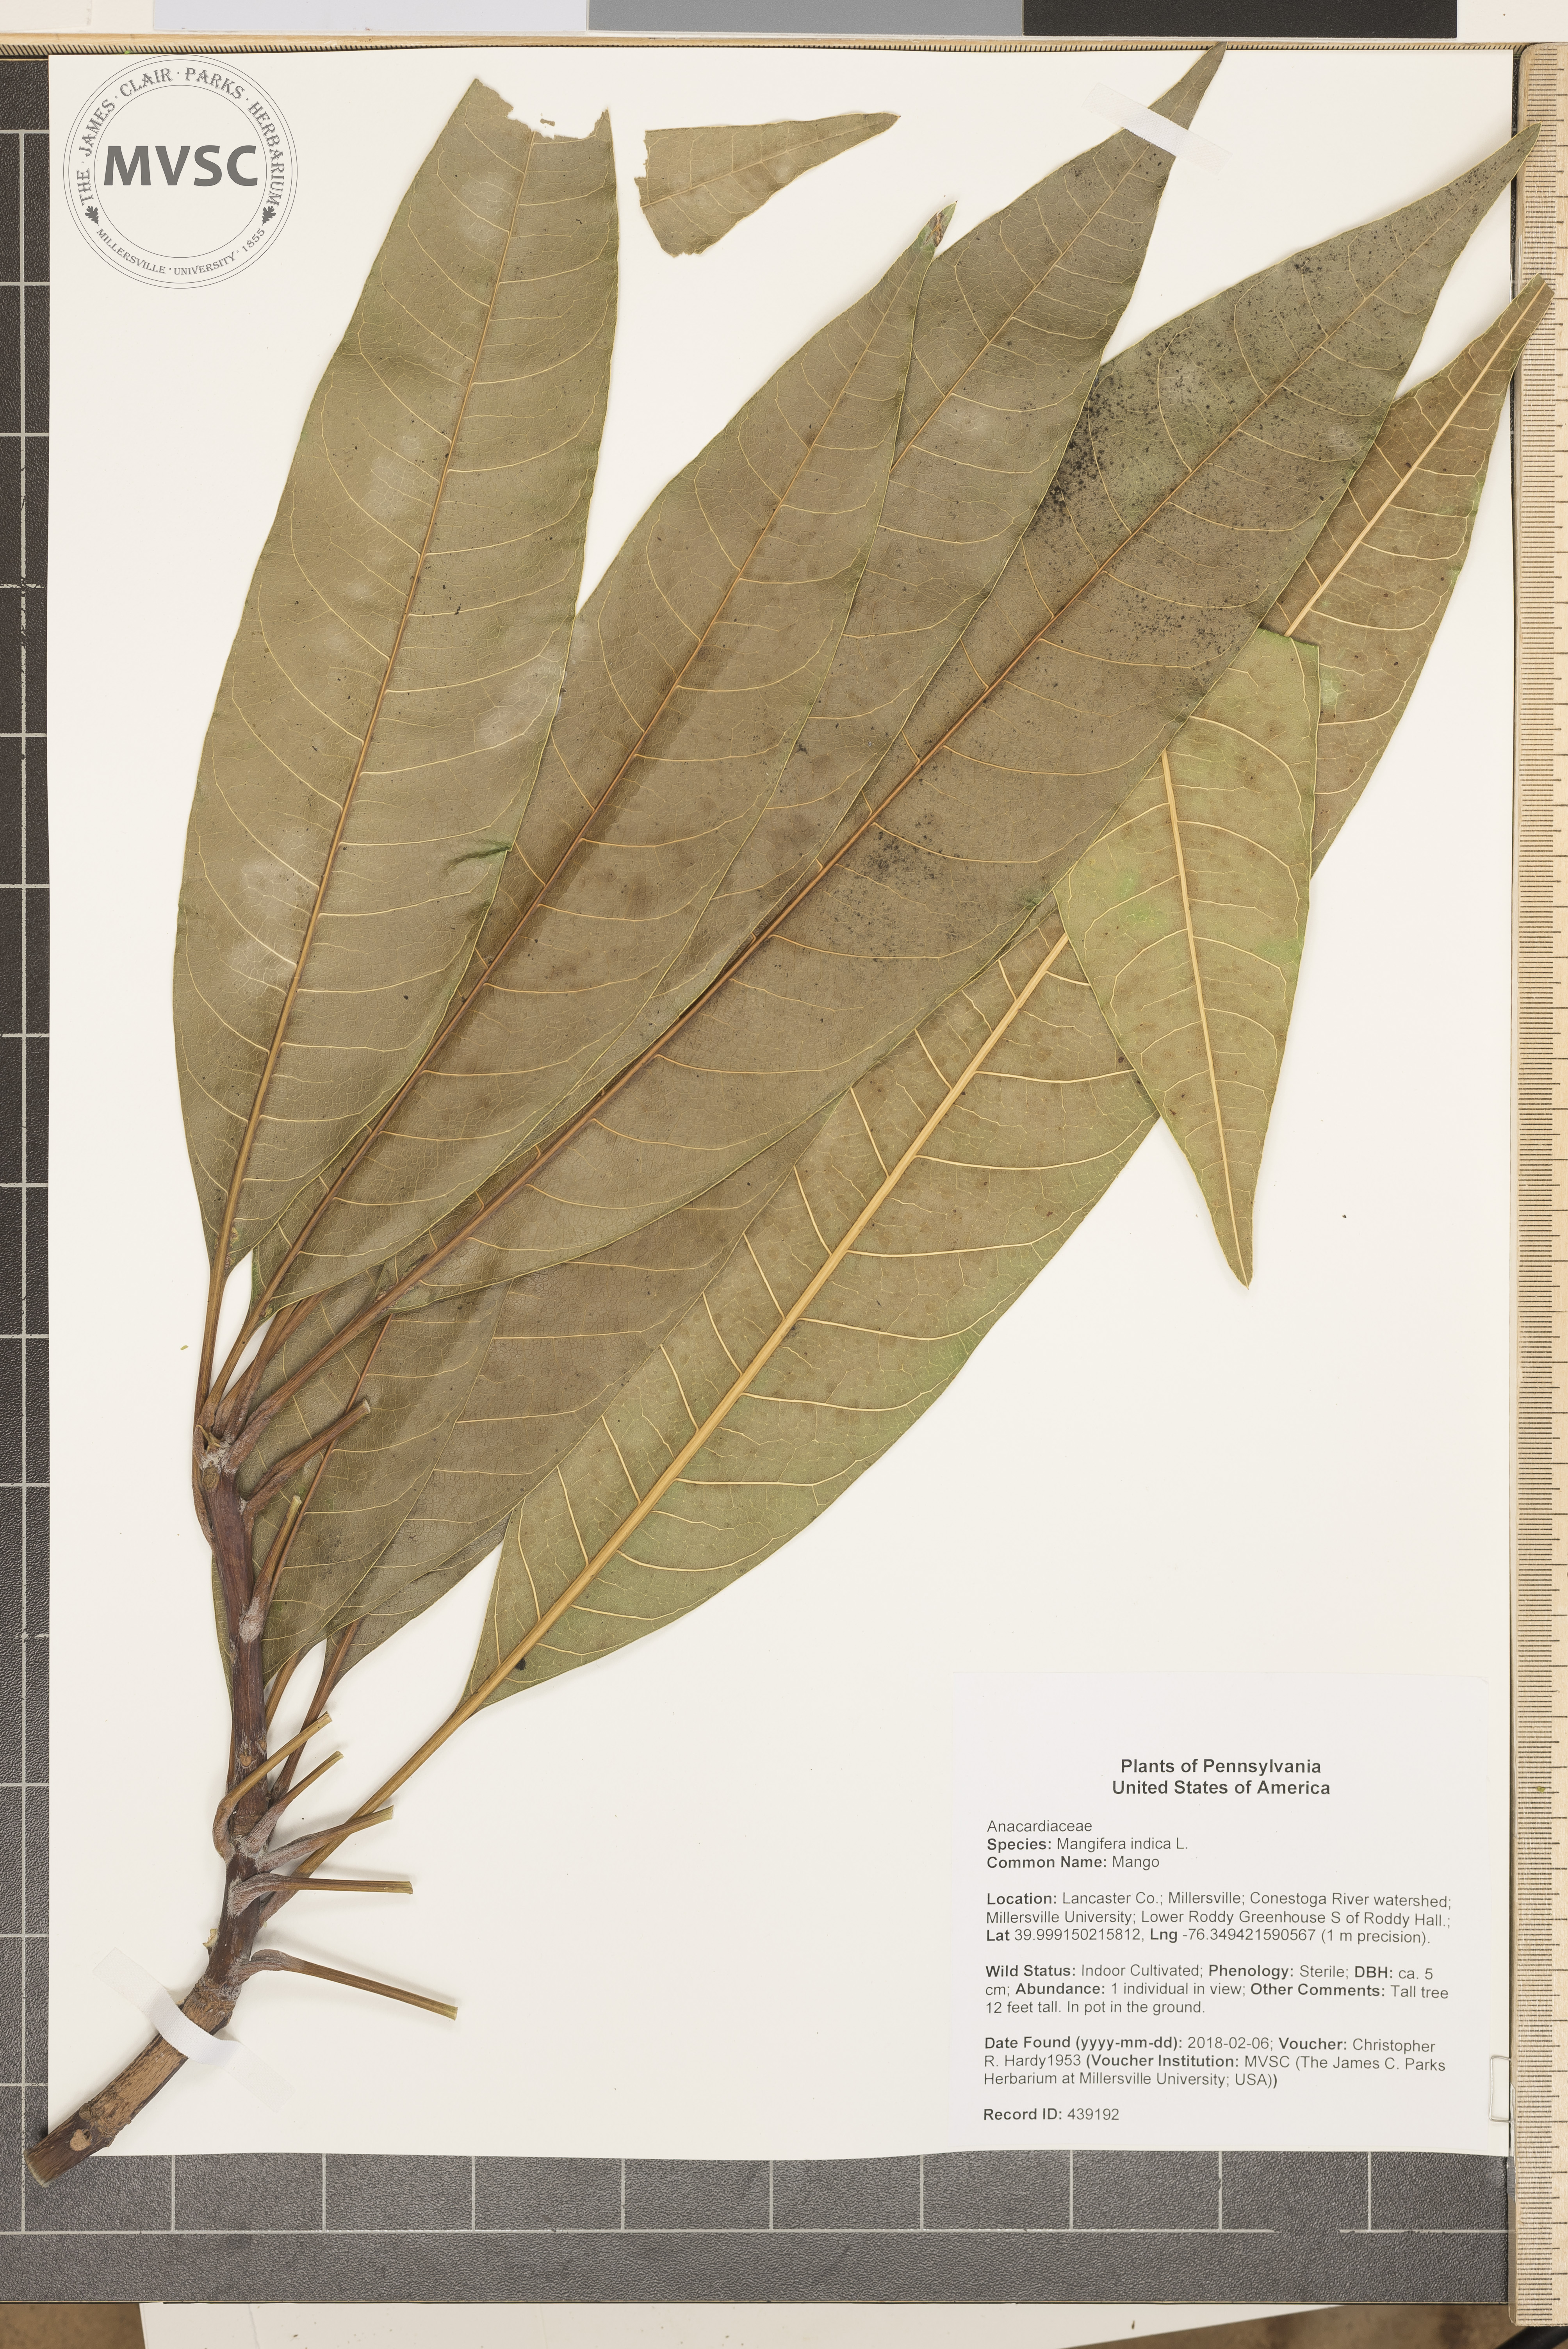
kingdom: Plantae
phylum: Tracheophyta
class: Magnoliopsida
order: Sapindales
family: Anacardiaceae
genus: Mangifera
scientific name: Mangifera indica
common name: Mango
